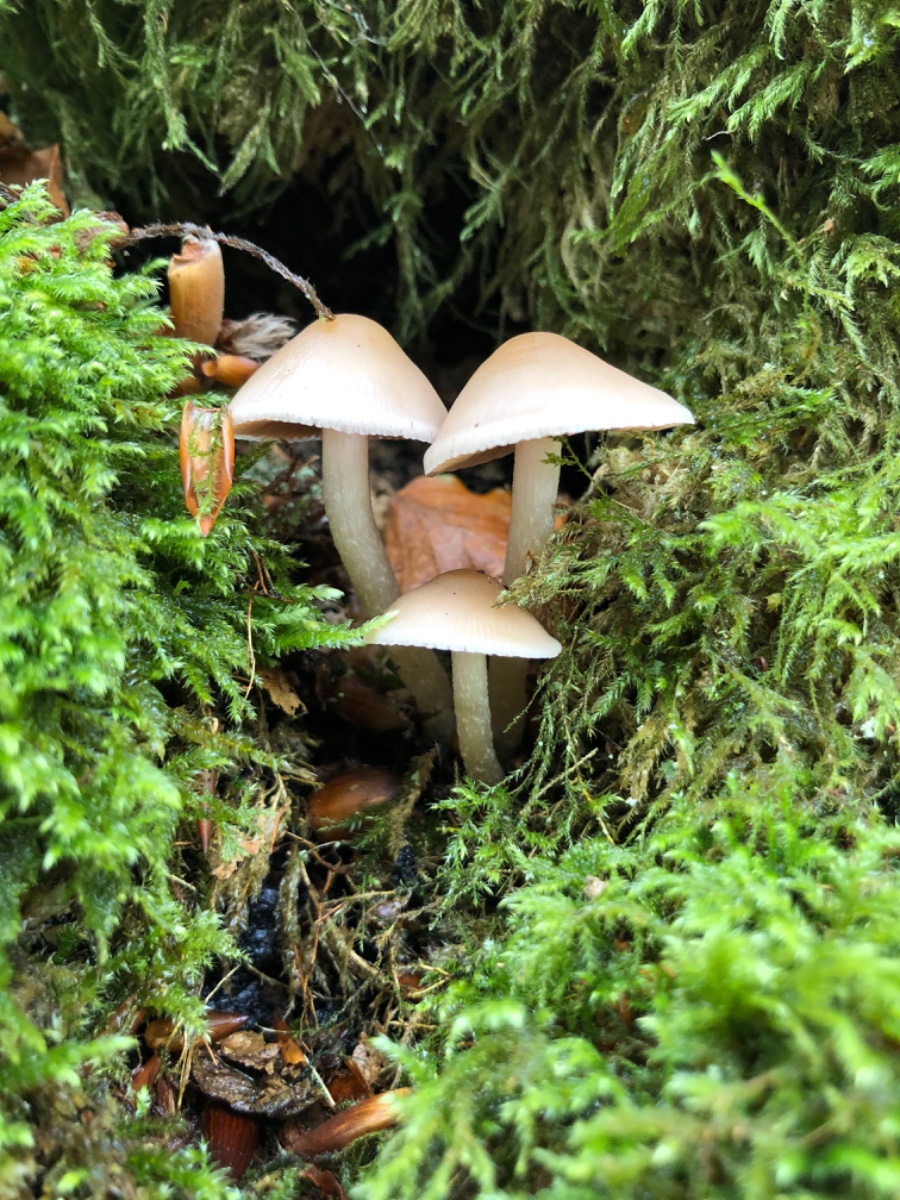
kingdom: Fungi
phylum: Basidiomycota
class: Agaricomycetes
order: Agaricales
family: Psathyrellaceae
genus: Psathyrella
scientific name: Psathyrella piluliformis
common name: lysstokket mørkhat
